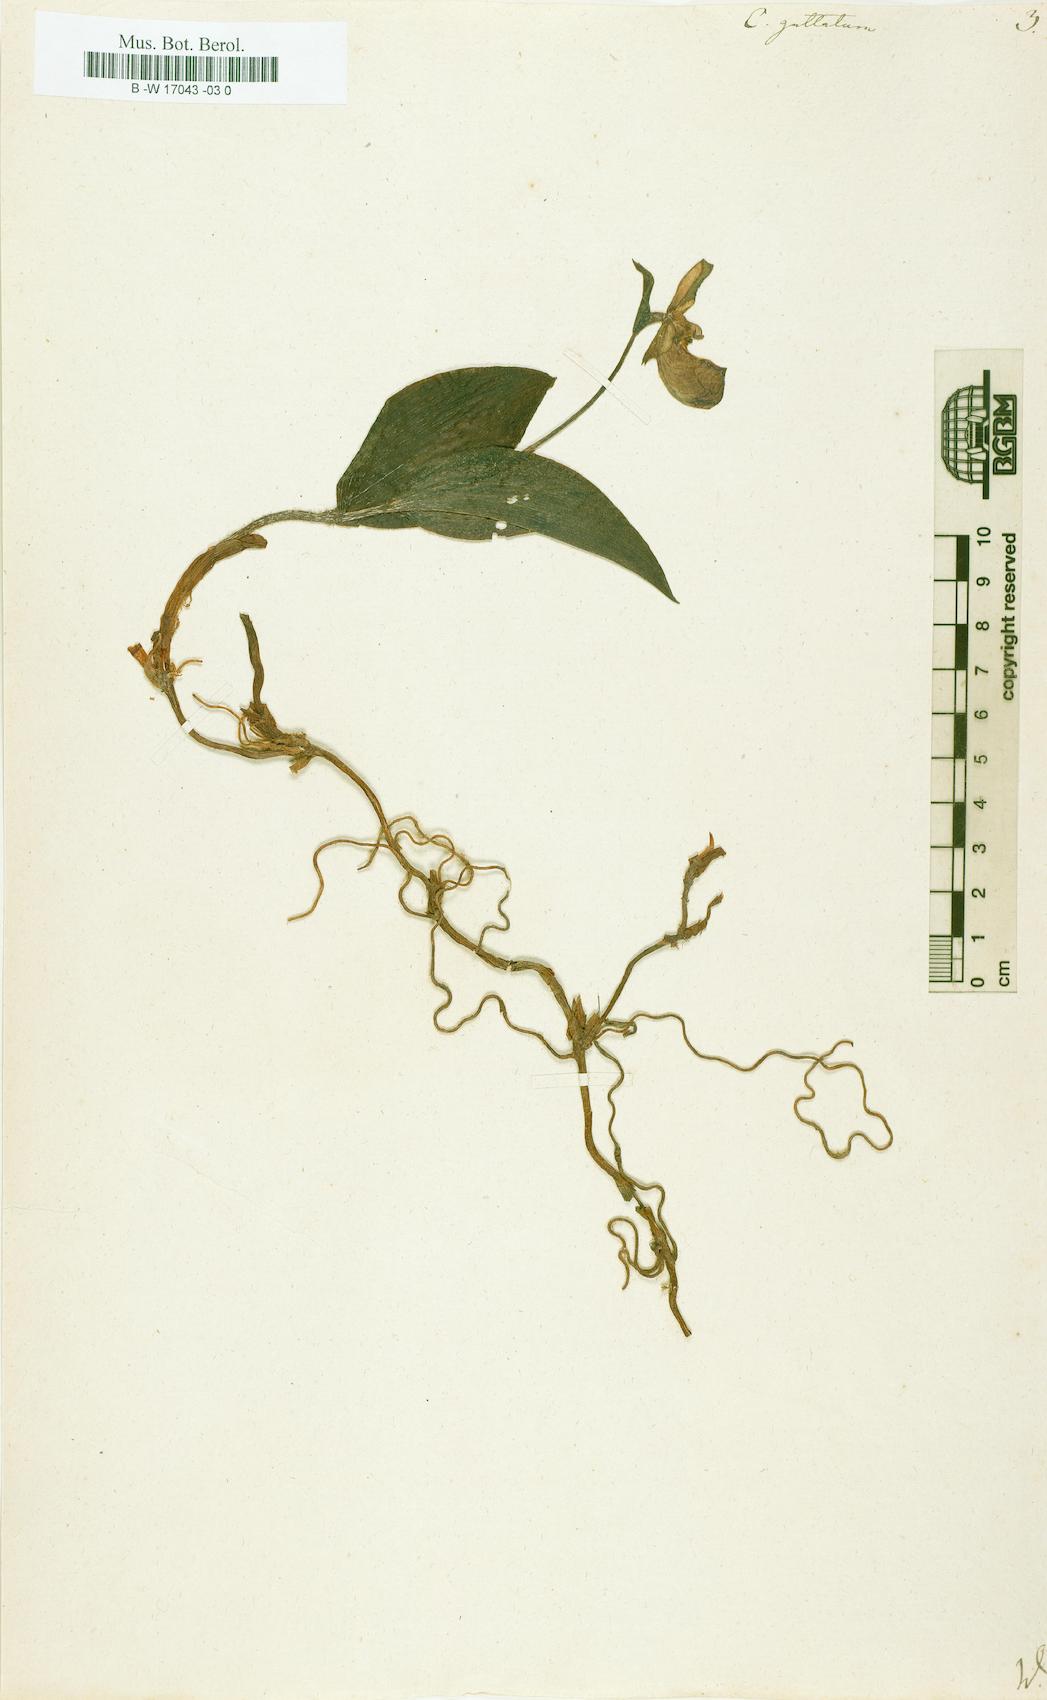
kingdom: Plantae
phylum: Tracheophyta
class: Liliopsida
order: Asparagales
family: Orchidaceae
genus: Cypripedium
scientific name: Cypripedium guttatum
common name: Pink lady slipper
